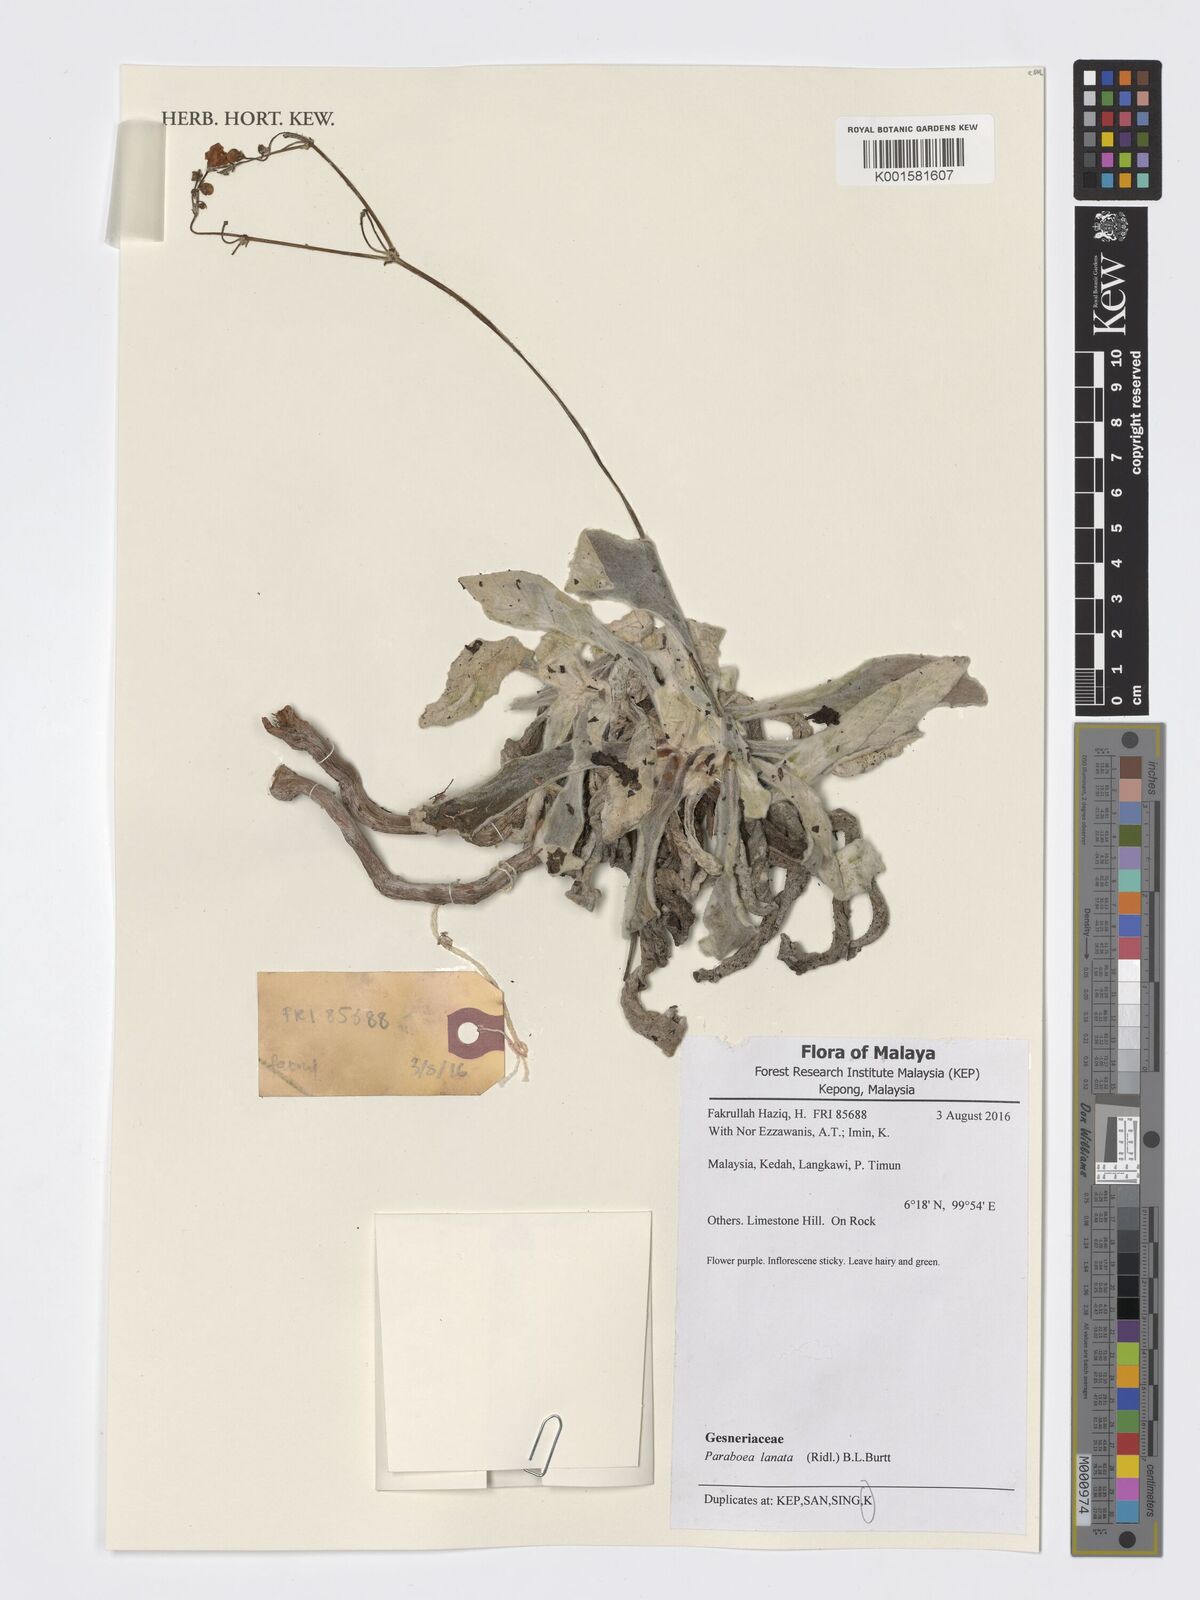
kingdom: Plantae
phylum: Tracheophyta
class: Magnoliopsida
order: Lamiales
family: Gesneriaceae
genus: Paraboea
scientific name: Paraboea lanata
